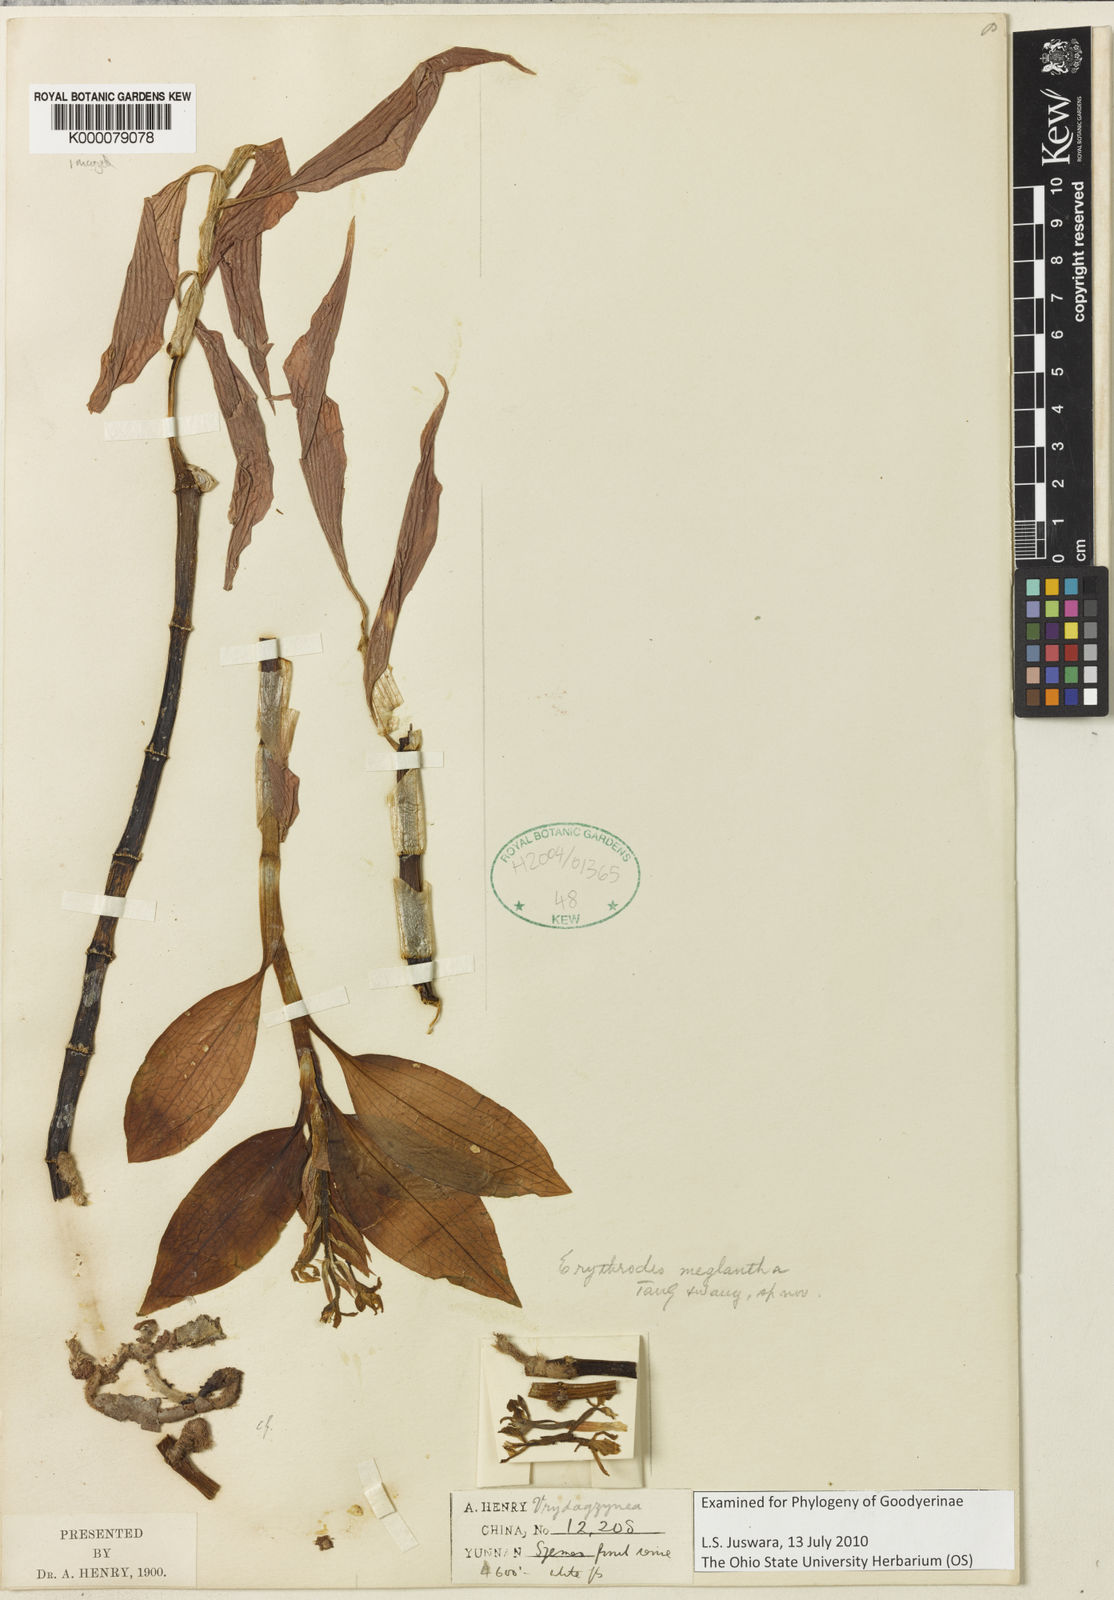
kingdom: Plantae
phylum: Tracheophyta
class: Liliopsida
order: Asparagales
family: Orchidaceae
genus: Erythrodes
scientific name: Erythrodes
